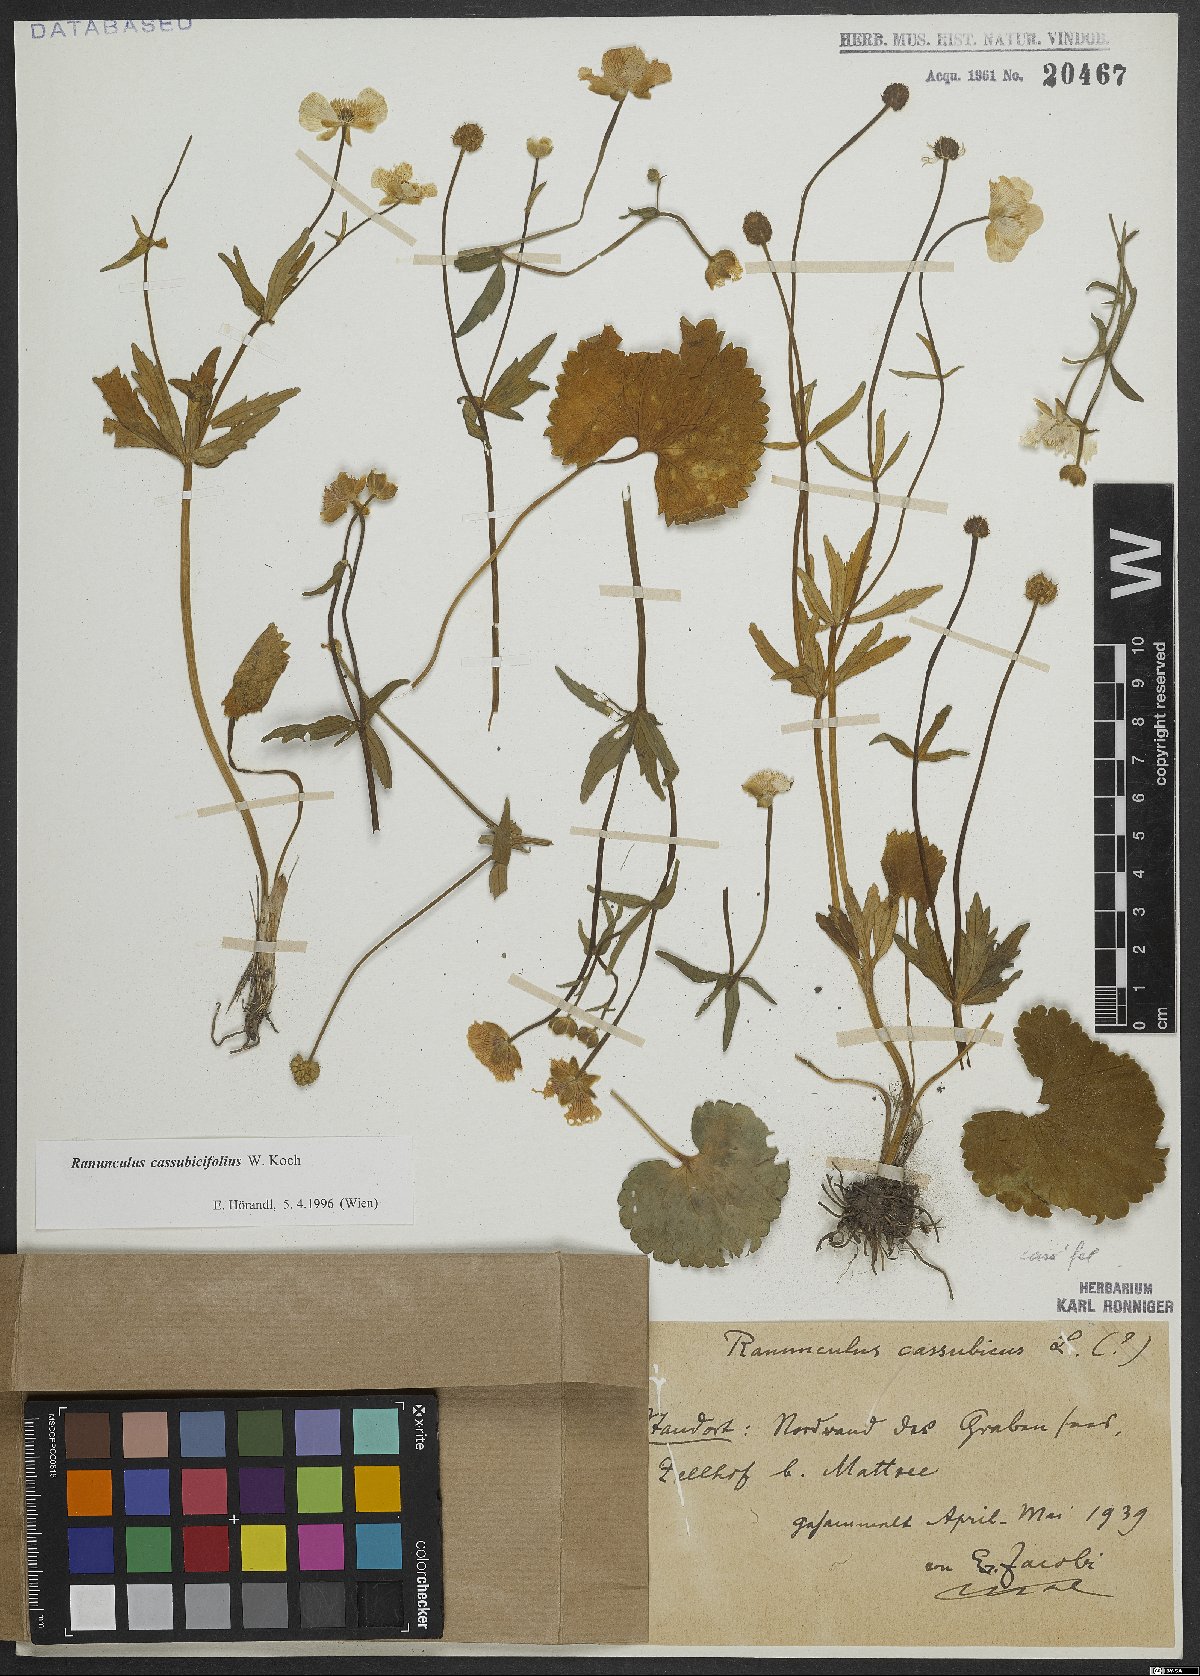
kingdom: Plantae
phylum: Tracheophyta
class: Magnoliopsida
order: Ranunculales
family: Ranunculaceae
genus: Ranunculus
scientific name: Ranunculus cassubicifolius
